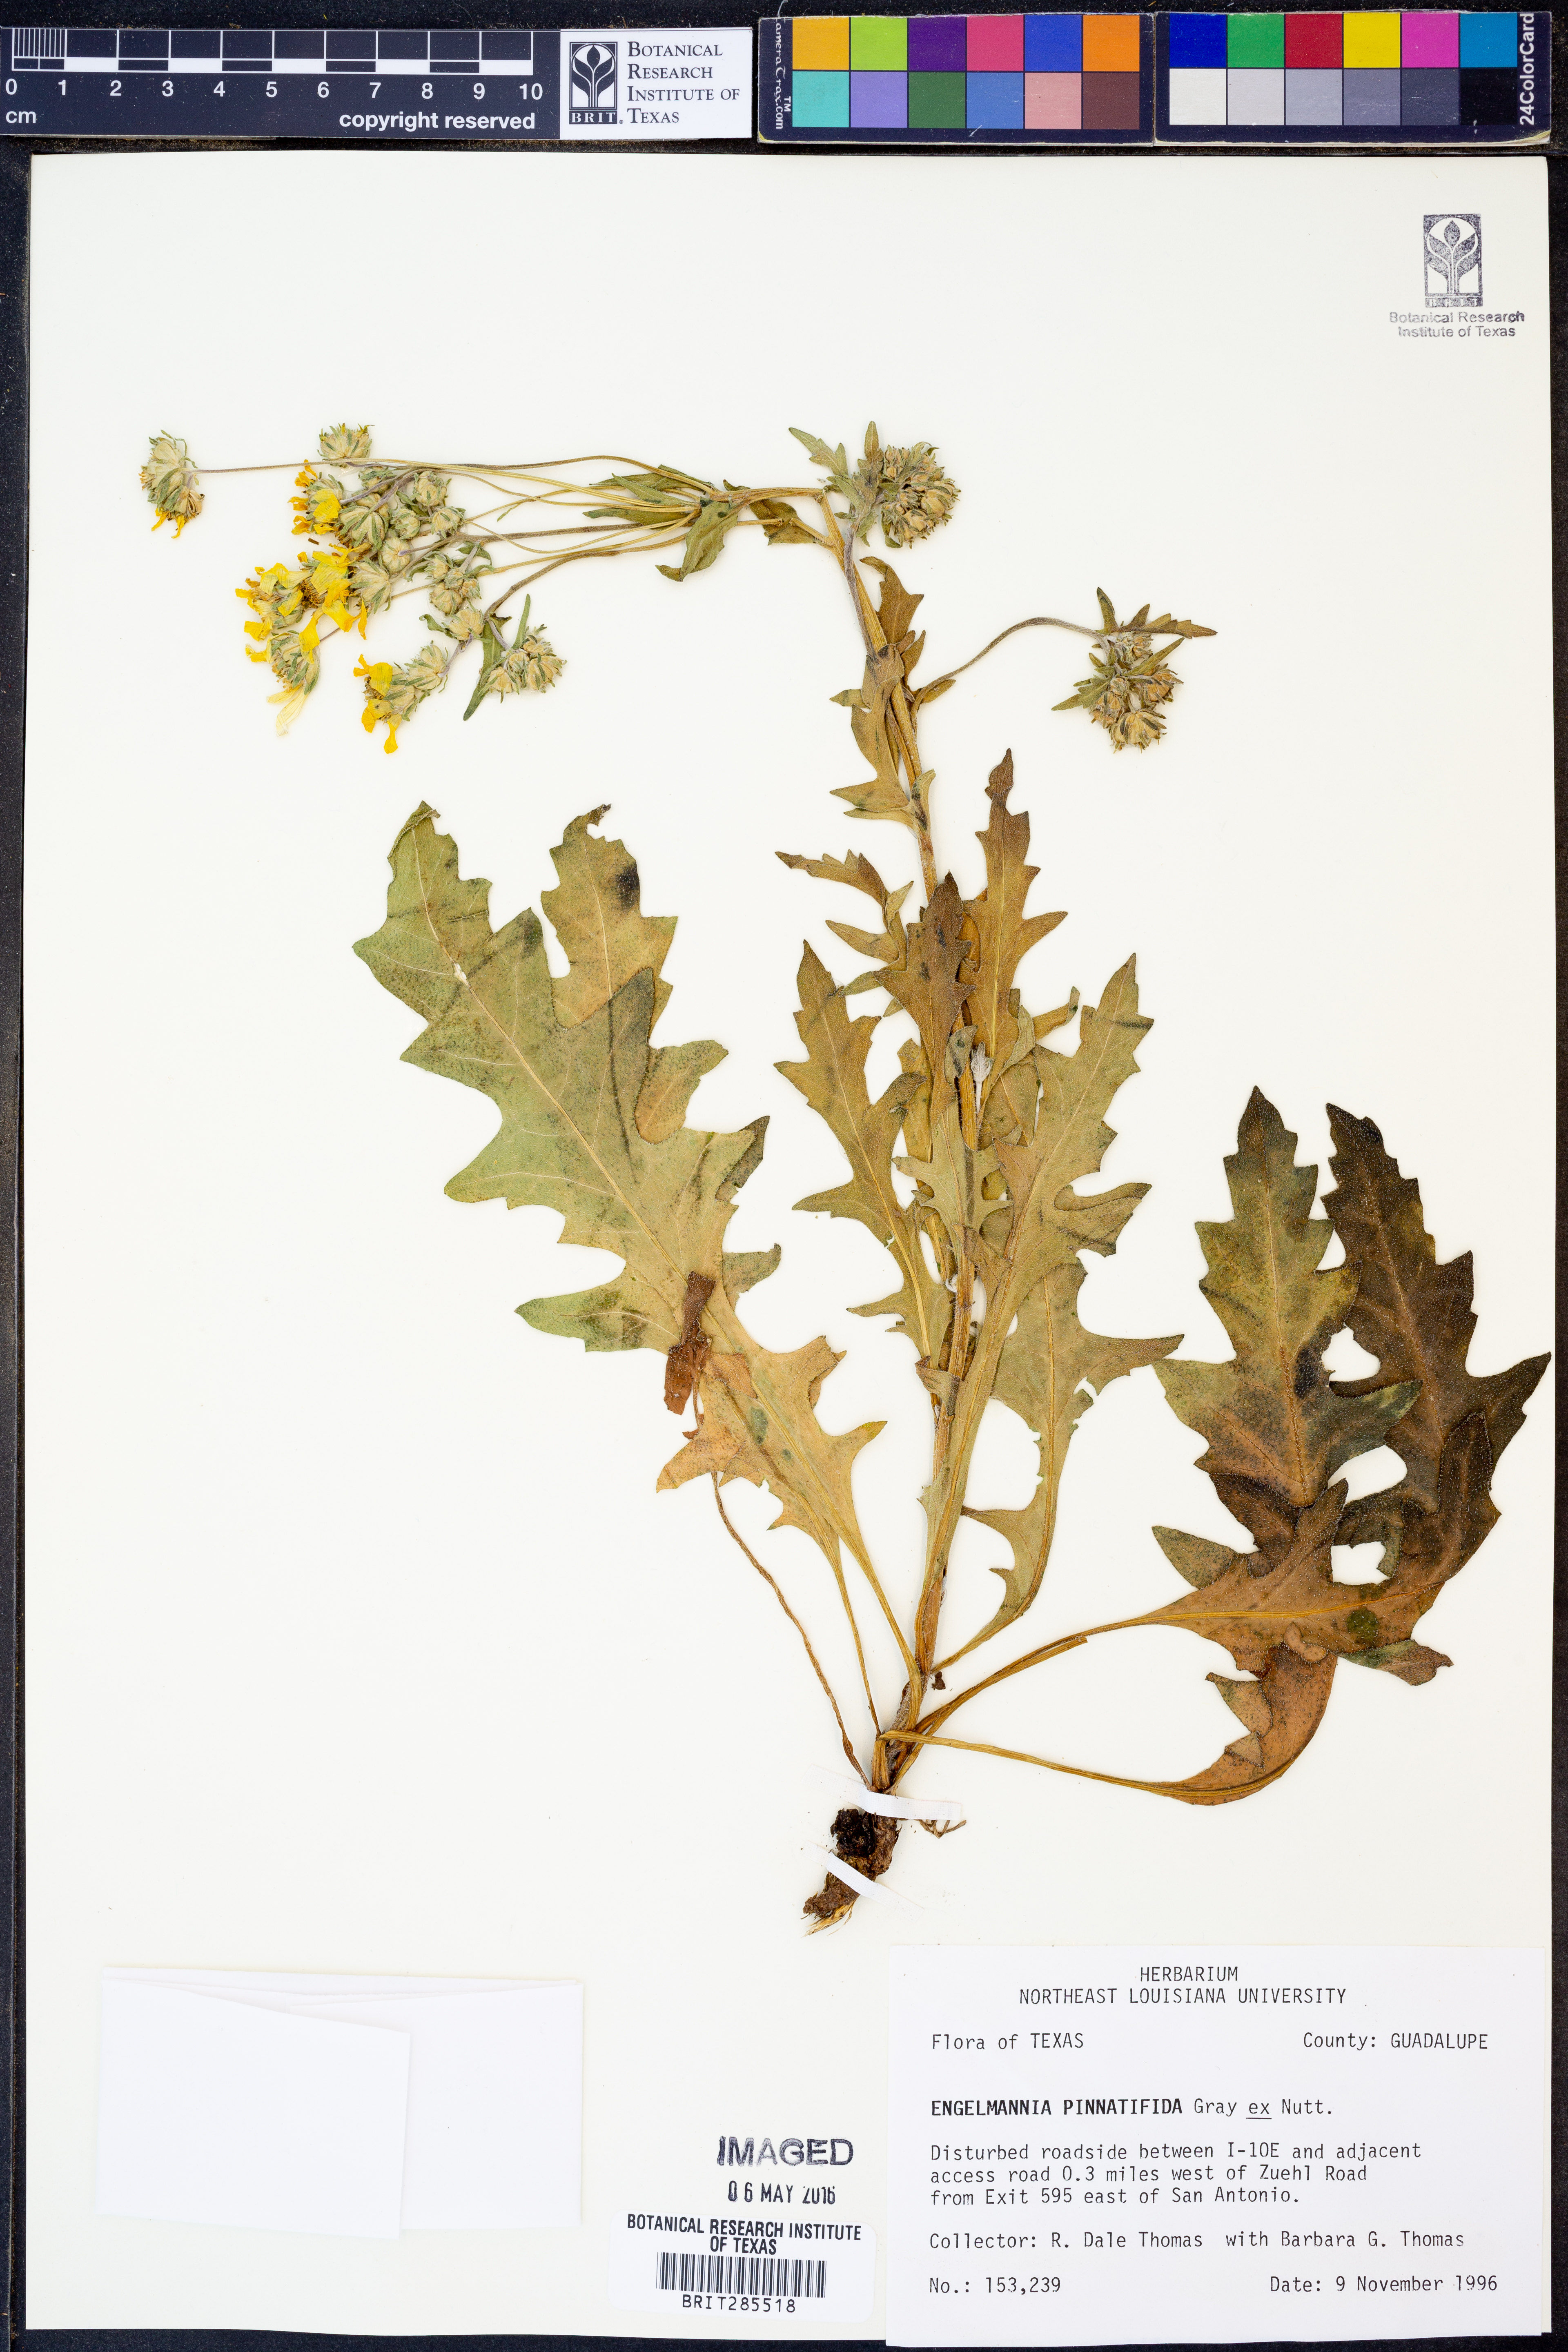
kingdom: Plantae
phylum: Tracheophyta
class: Magnoliopsida
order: Asterales
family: Asteraceae
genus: Engelmannia
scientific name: Engelmannia peristenia
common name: Engelmann's daisy
